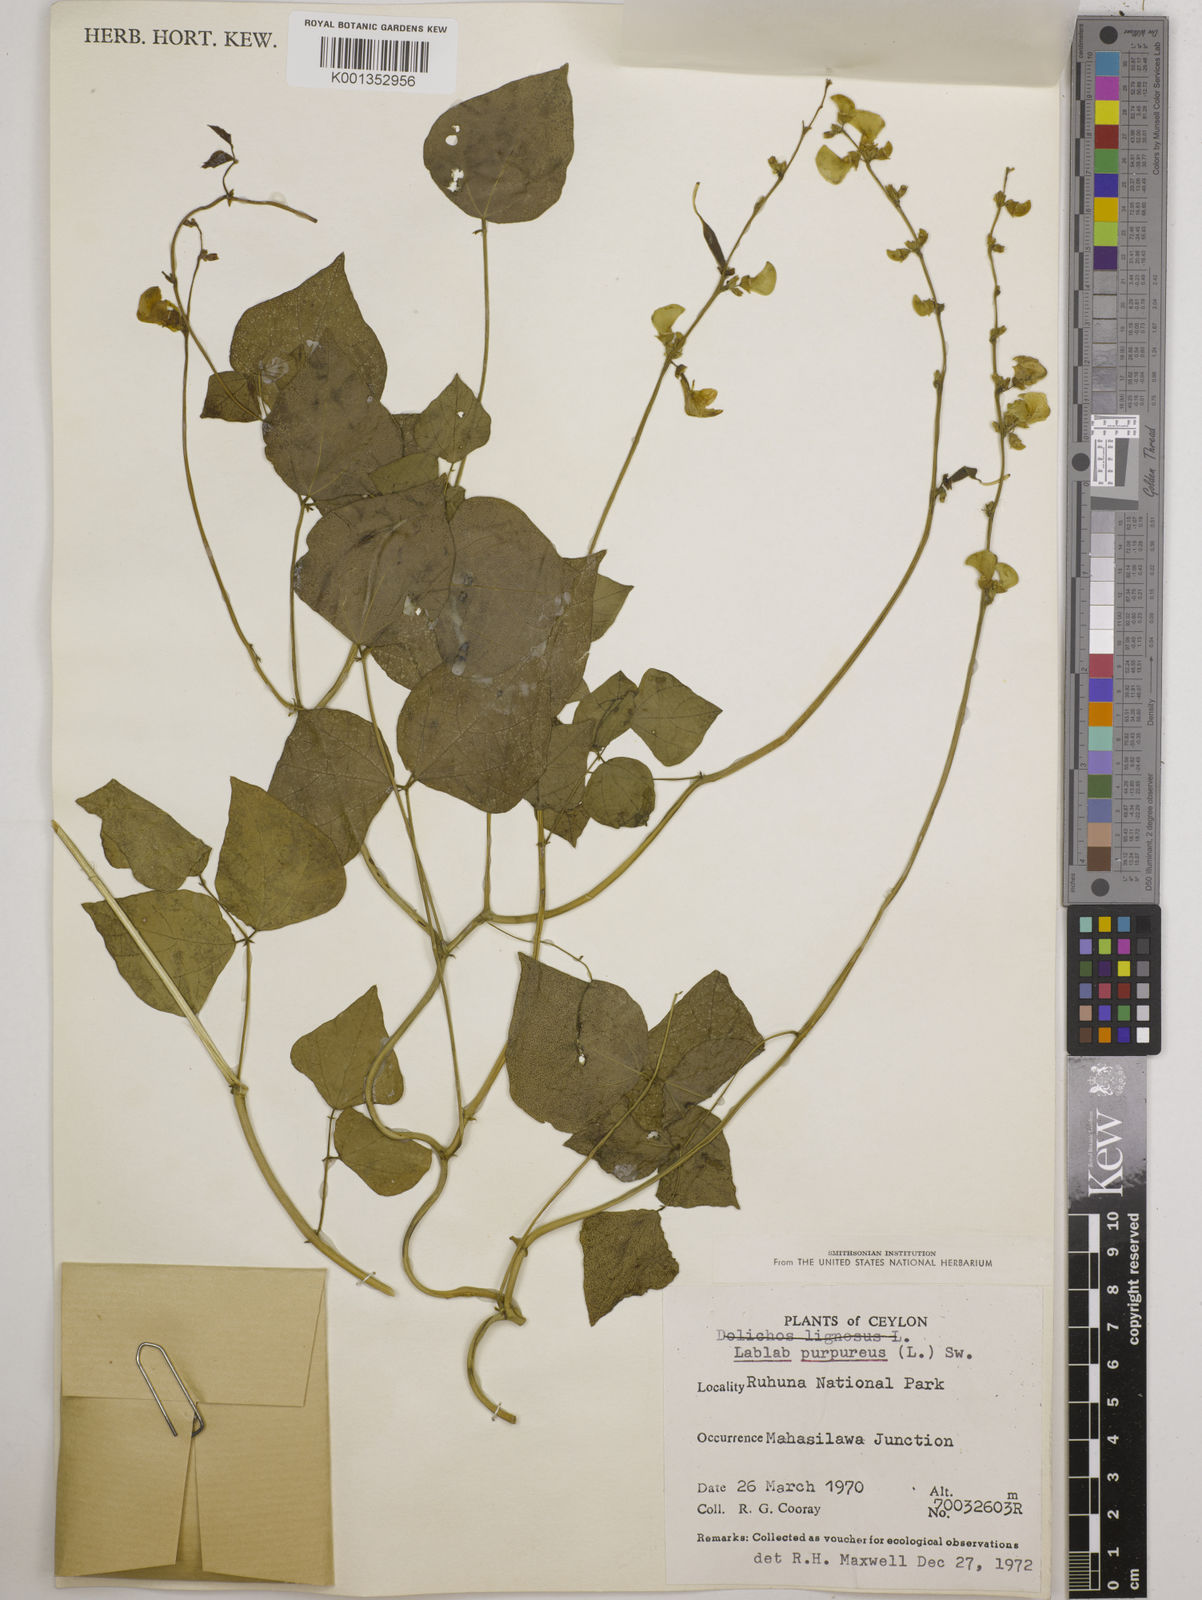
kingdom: Plantae
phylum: Tracheophyta
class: Magnoliopsida
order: Fabales
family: Fabaceae
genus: Lablab
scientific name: Lablab purpureus
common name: Lablab-bean
